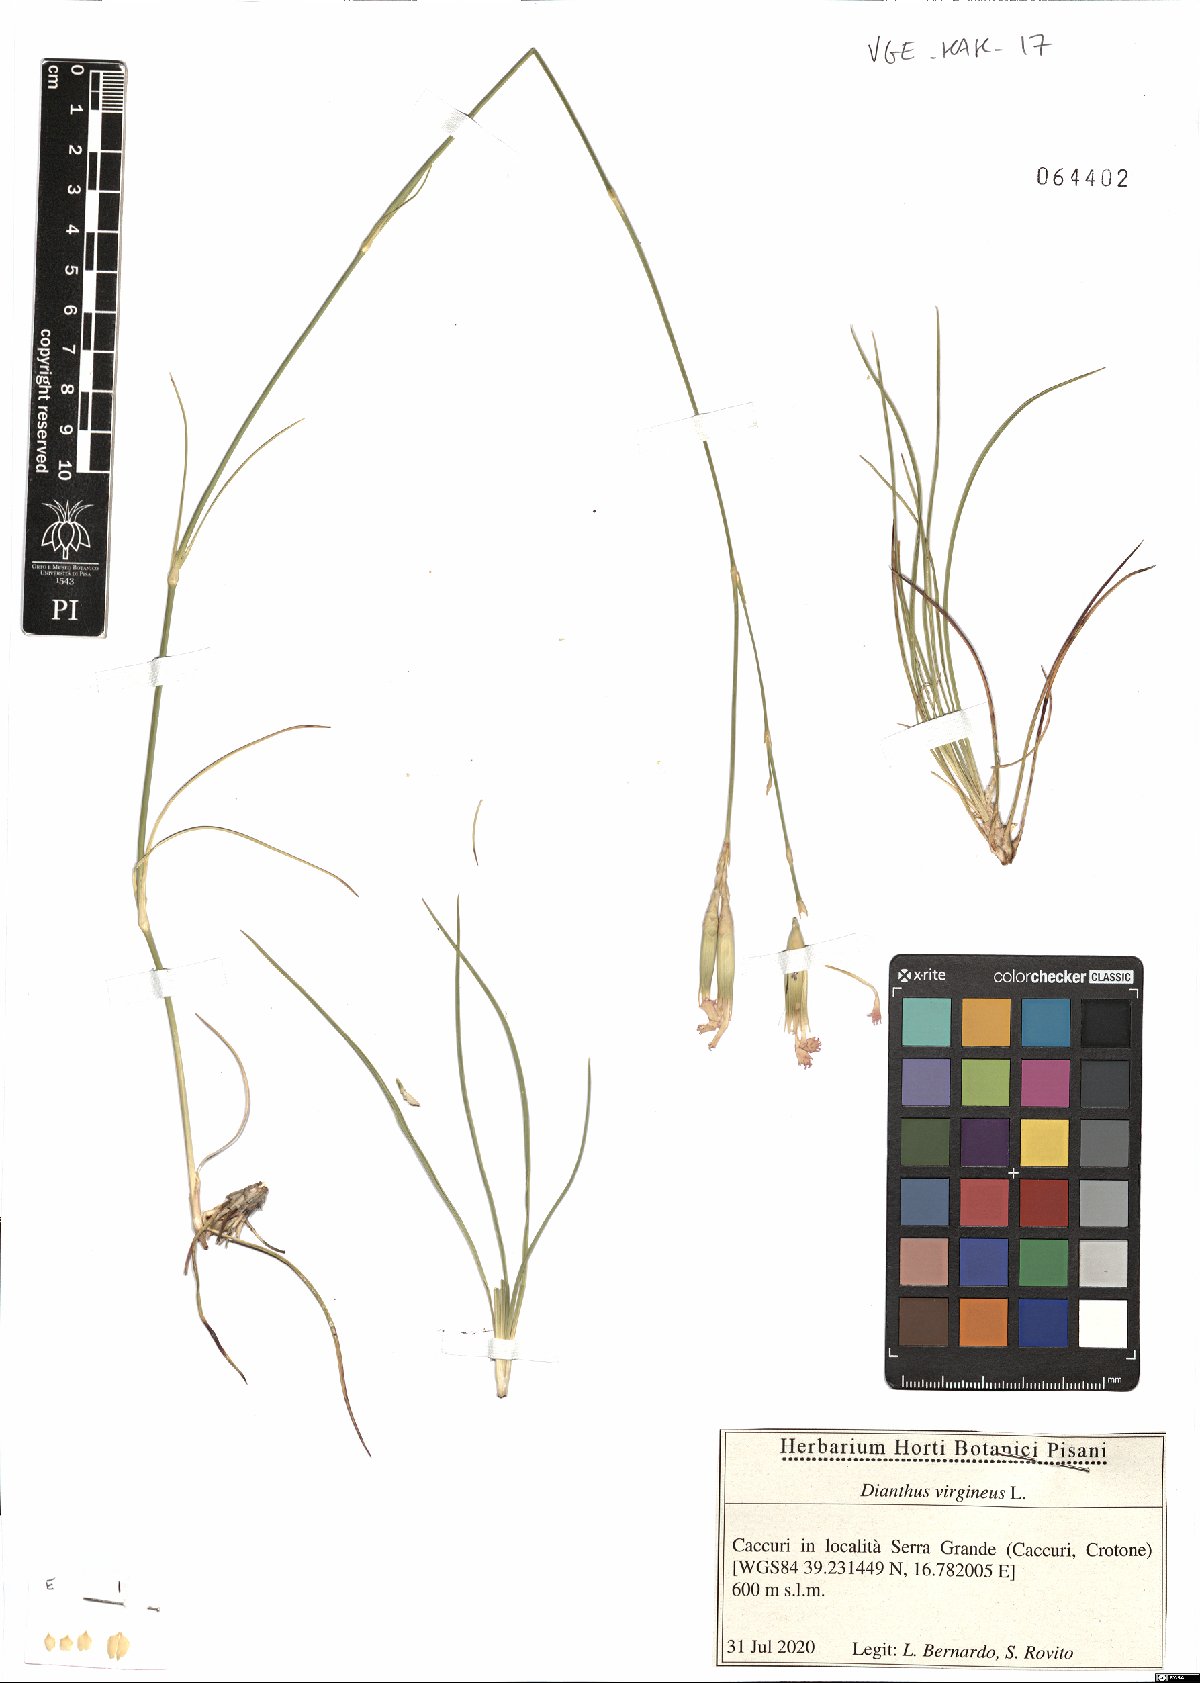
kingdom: Plantae
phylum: Tracheophyta
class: Magnoliopsida
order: Caryophyllales
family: Caryophyllaceae
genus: Dianthus
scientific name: Dianthus virgineus
